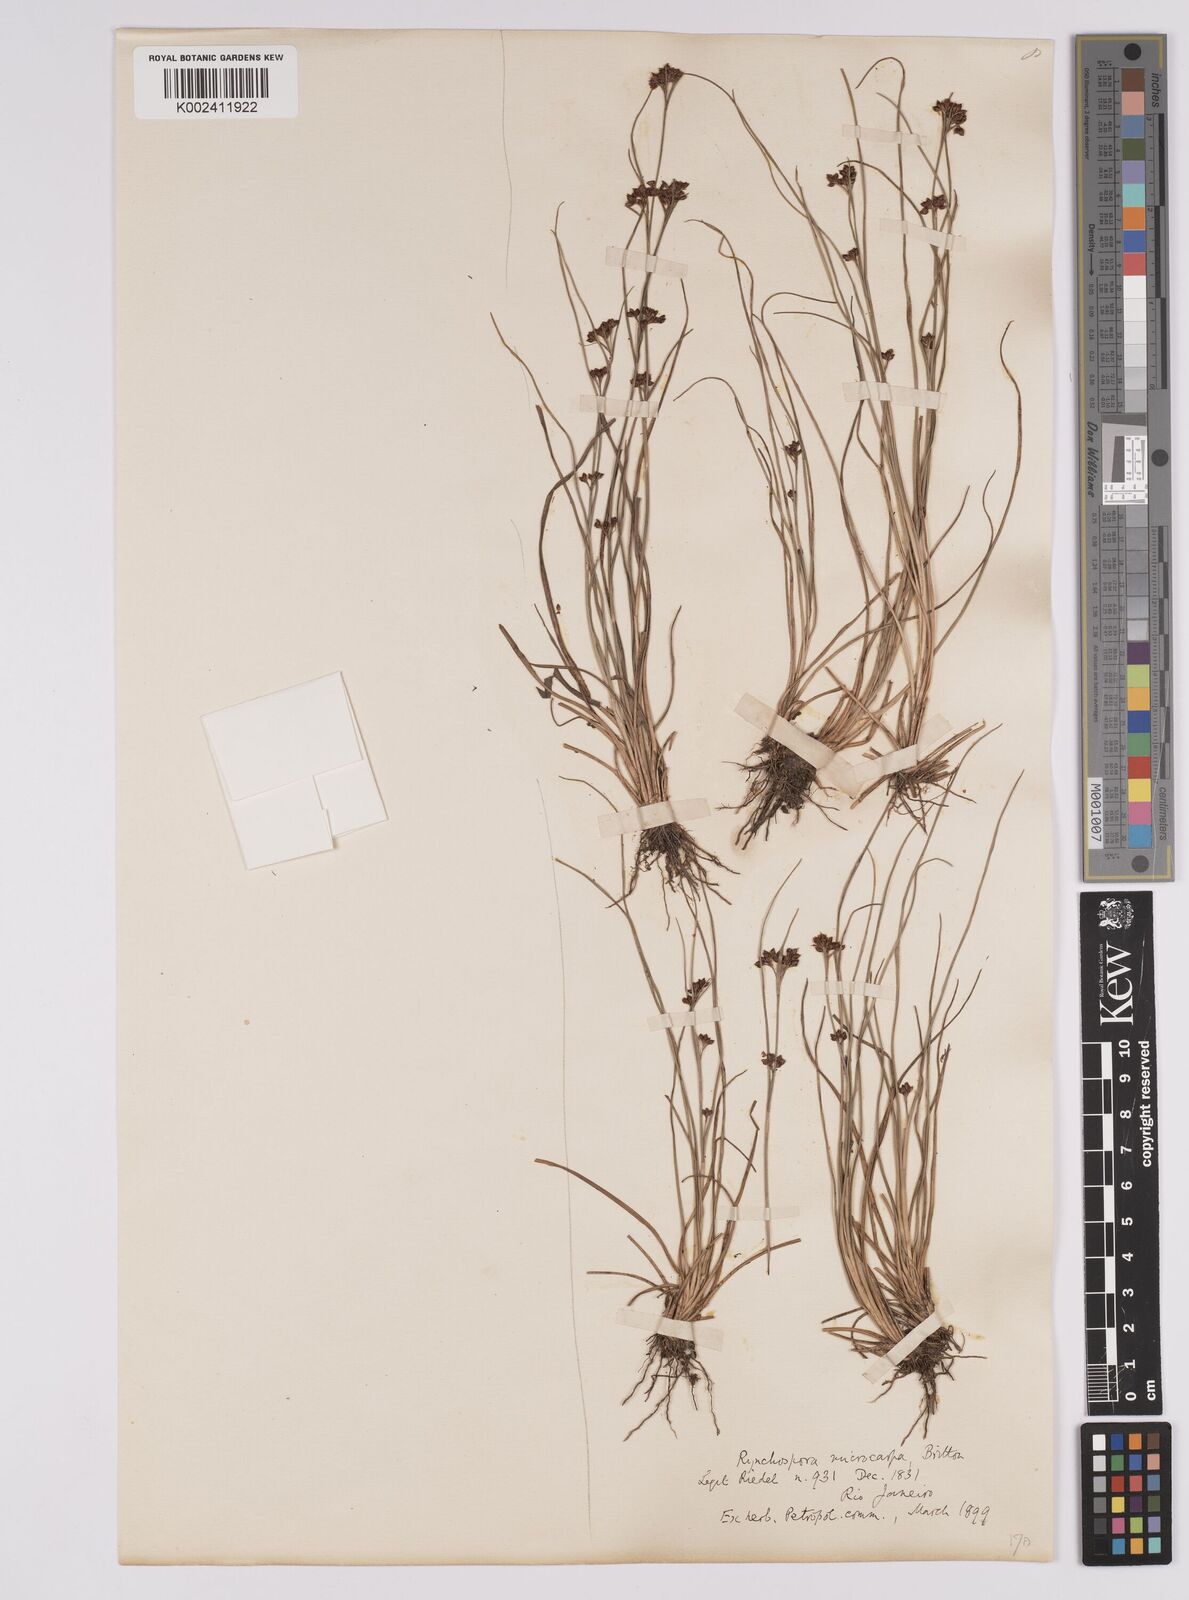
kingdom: Plantae
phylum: Tracheophyta
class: Liliopsida
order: Poales
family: Cyperaceae
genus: Rhynchospora
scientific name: Rhynchospora stenophylla
